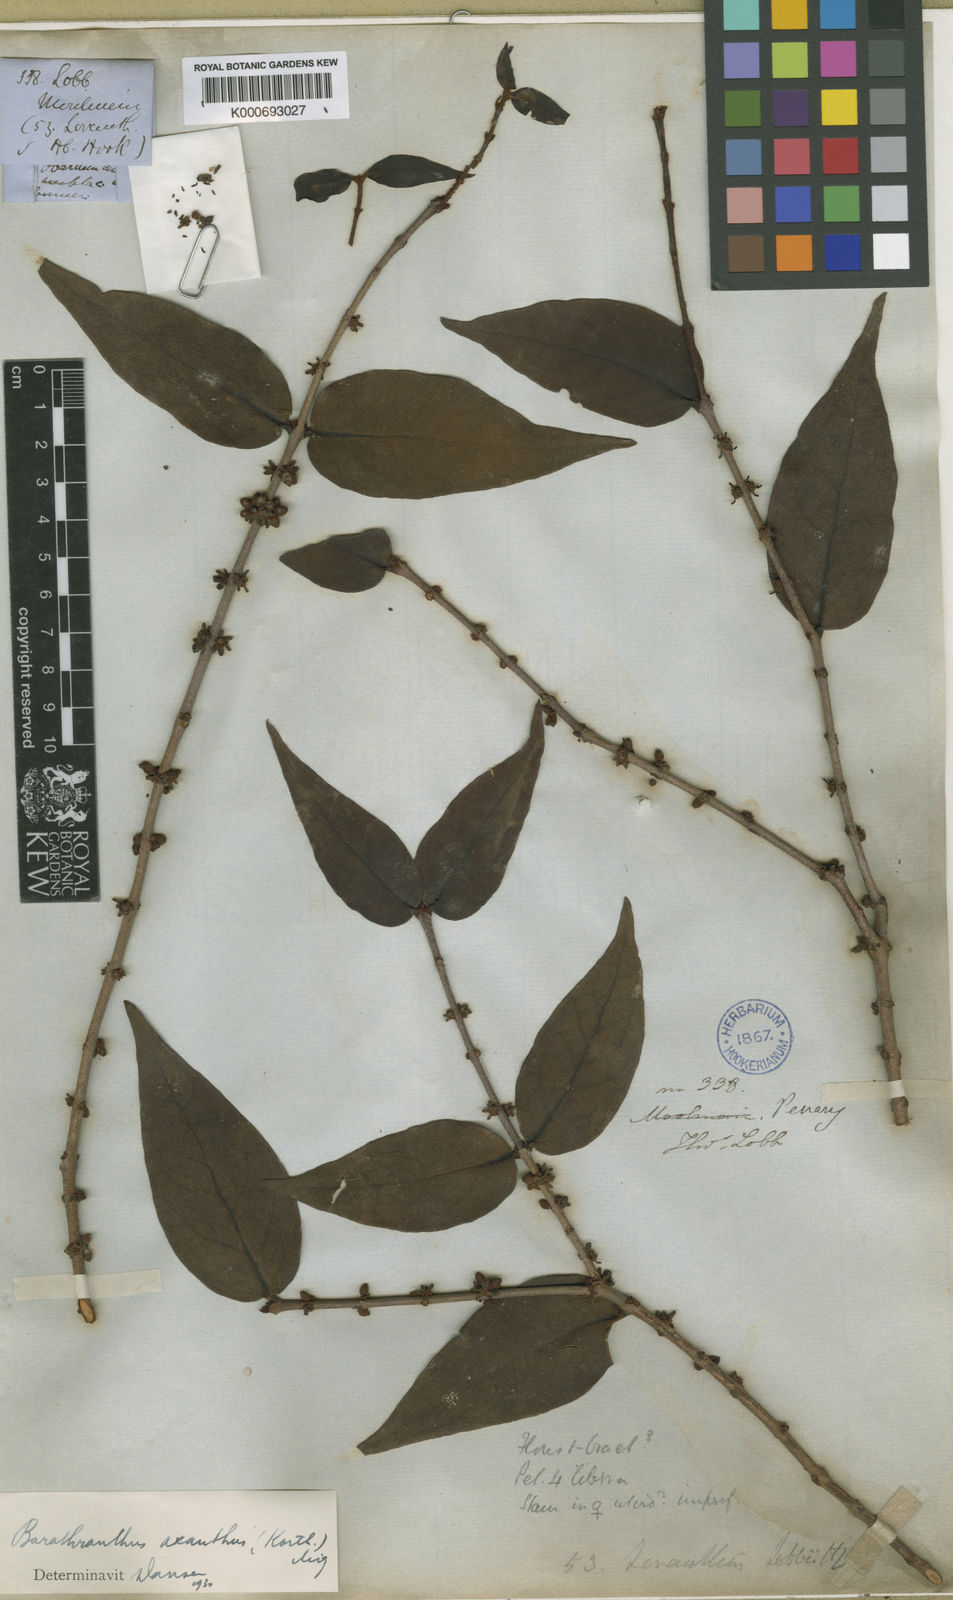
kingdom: Plantae
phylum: Tracheophyta
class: Magnoliopsida
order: Santalales
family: Loranthaceae
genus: Barathranthus
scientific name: Barathranthus axanthus
